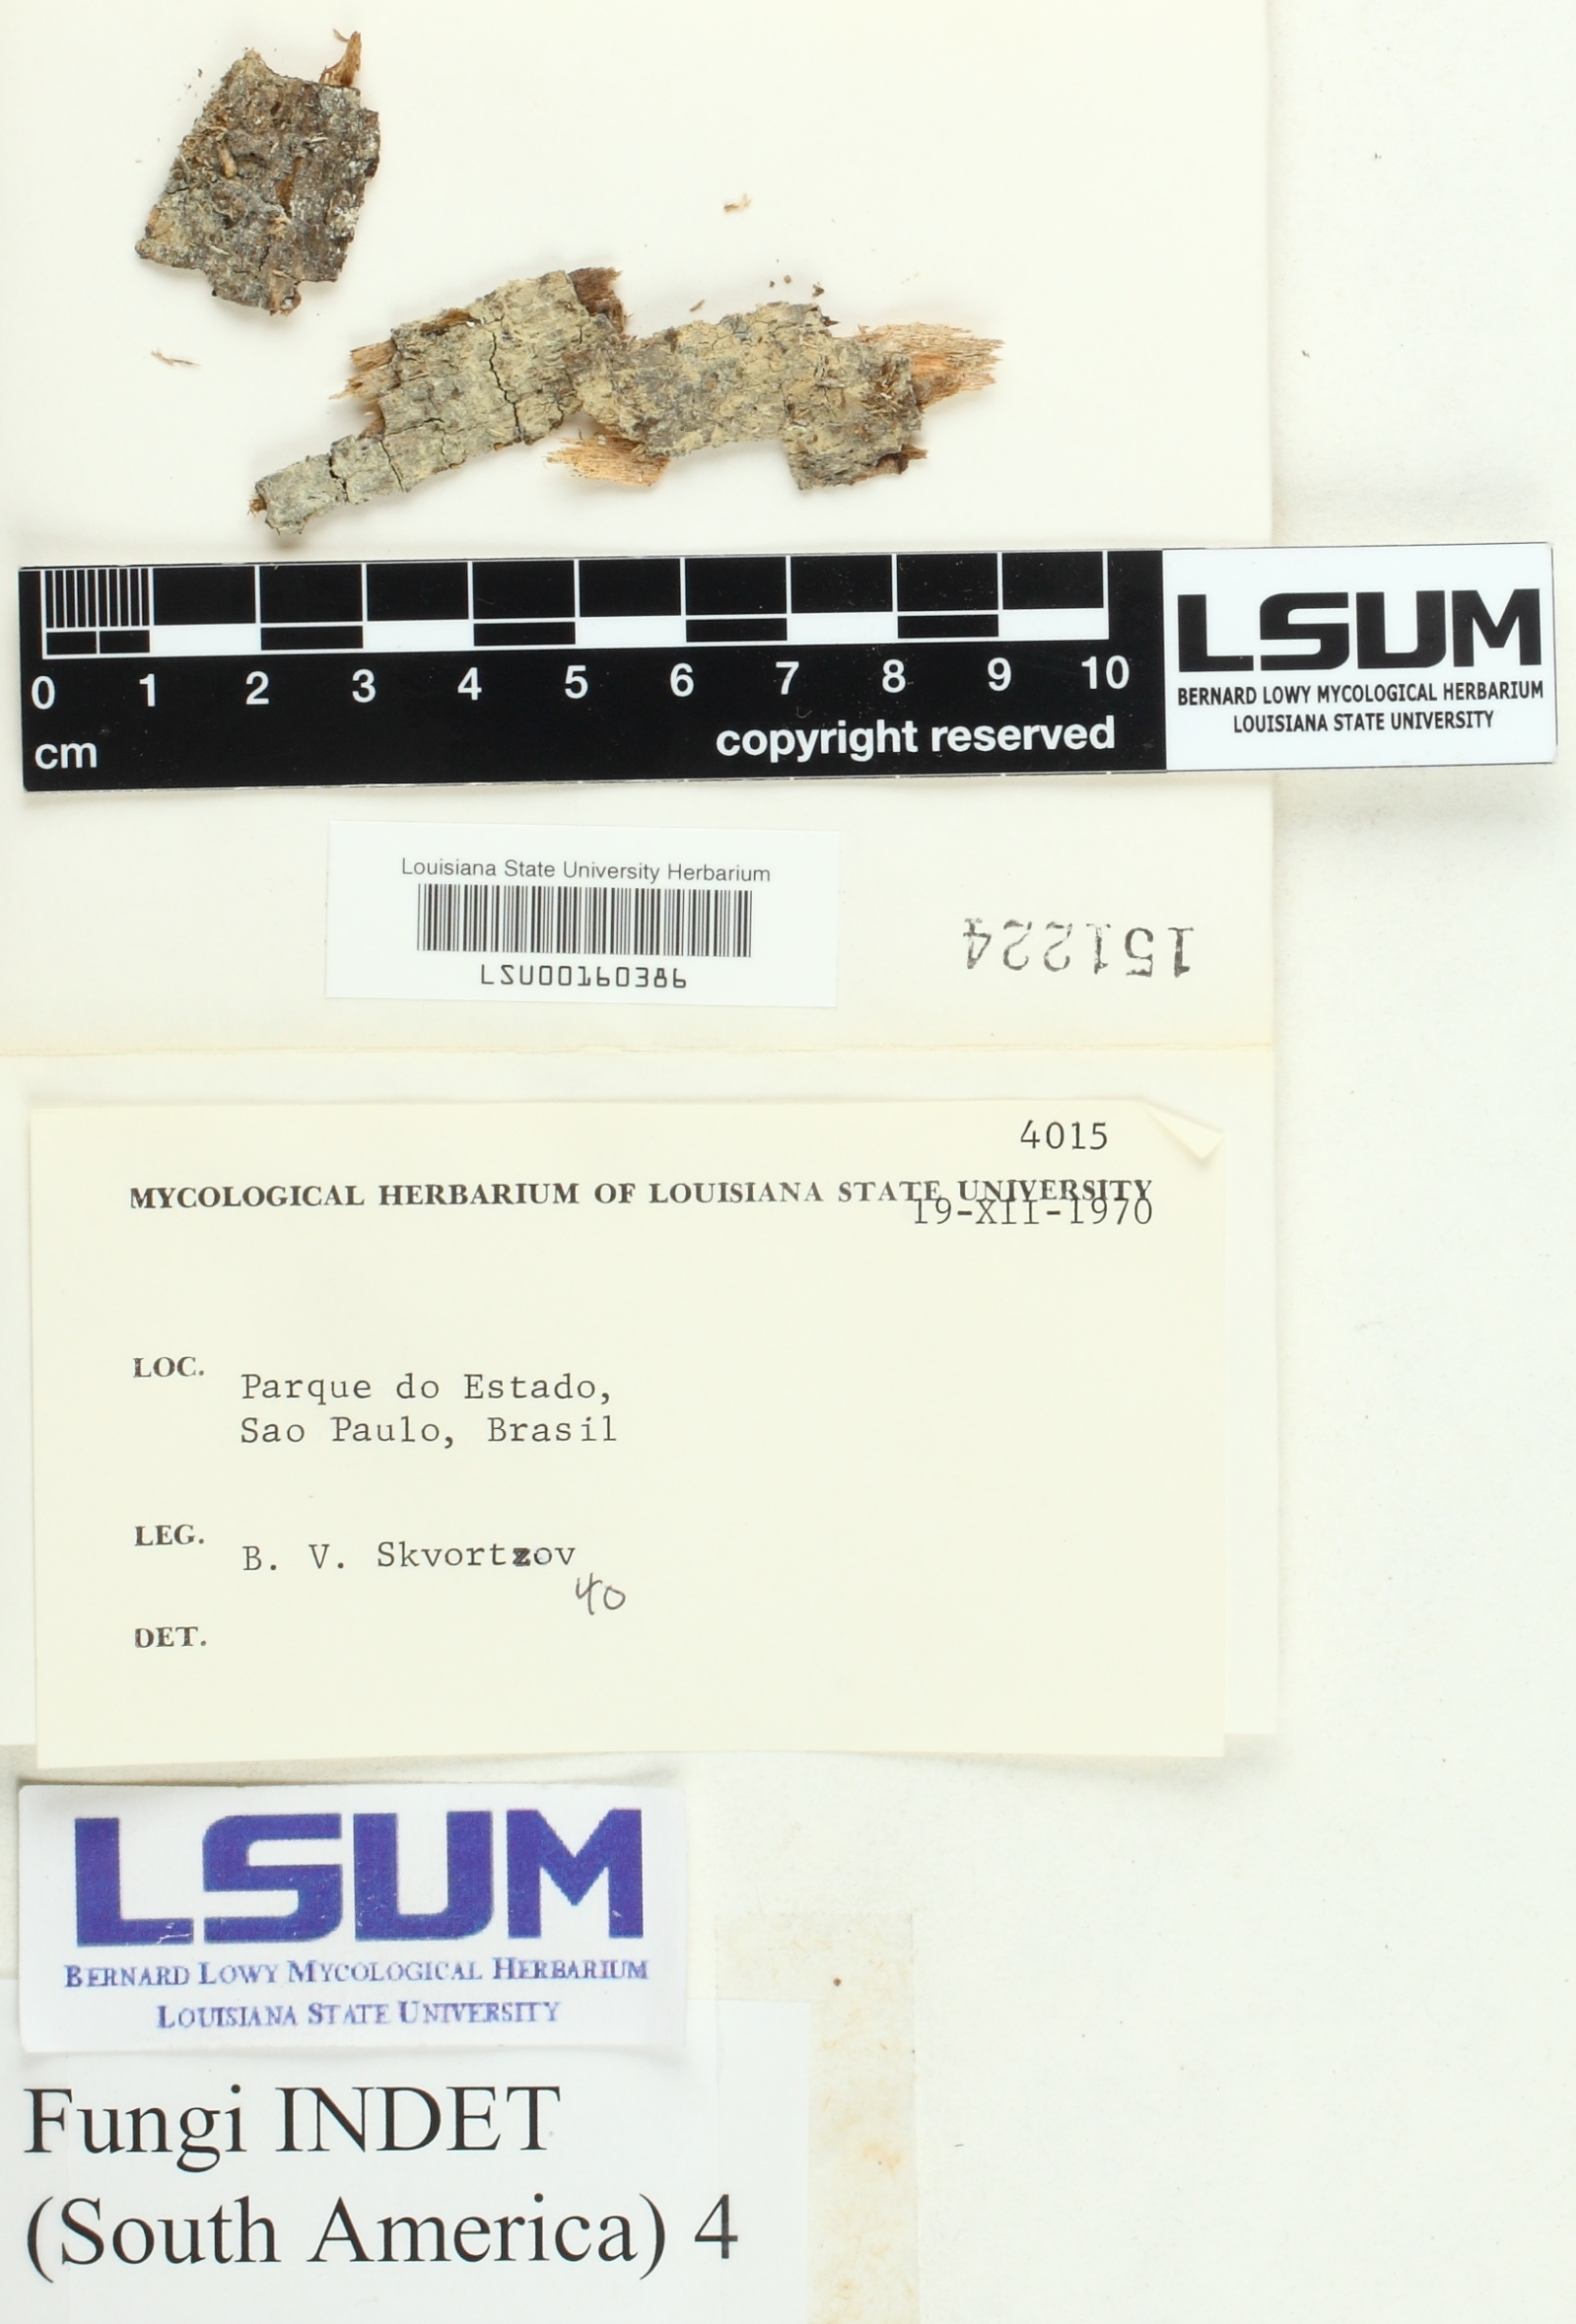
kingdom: Fungi
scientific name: Fungi
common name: Fungi
